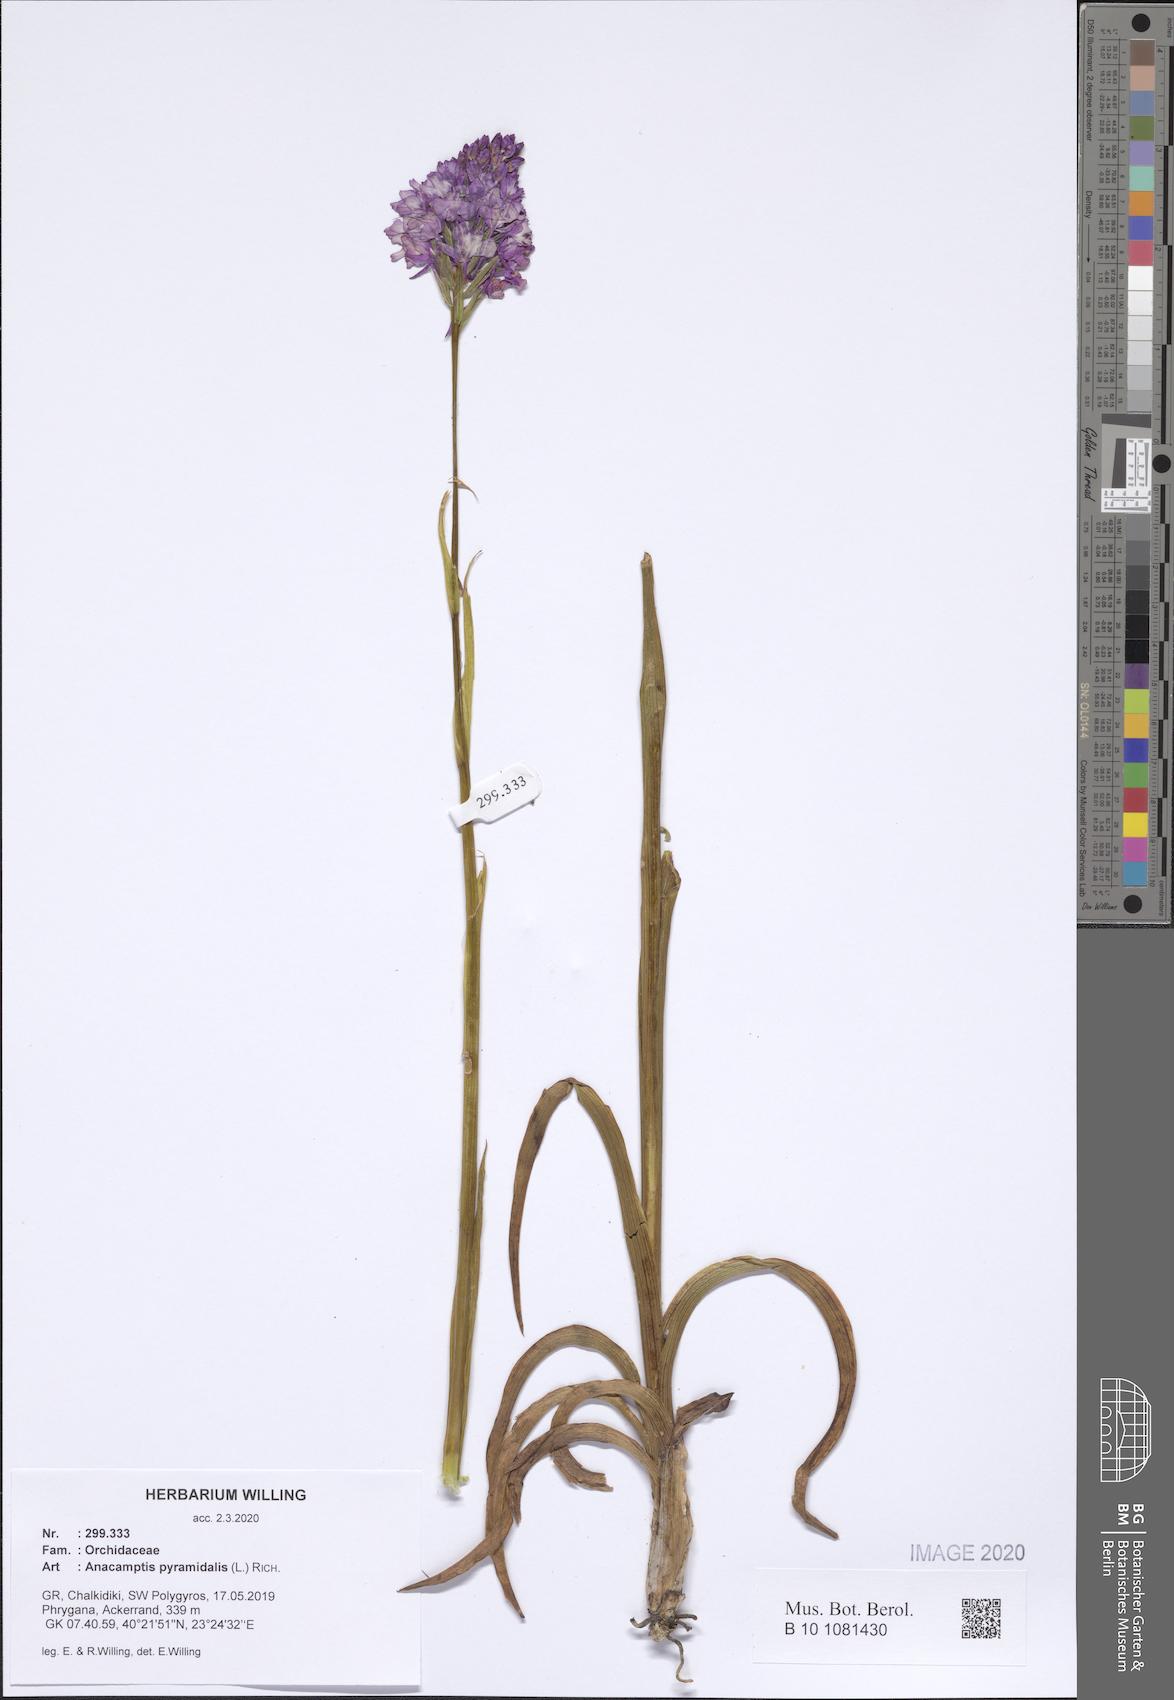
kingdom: Plantae
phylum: Tracheophyta
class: Liliopsida
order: Asparagales
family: Orchidaceae
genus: Anacamptis
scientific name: Anacamptis pyramidalis
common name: Pyramidal orchid
